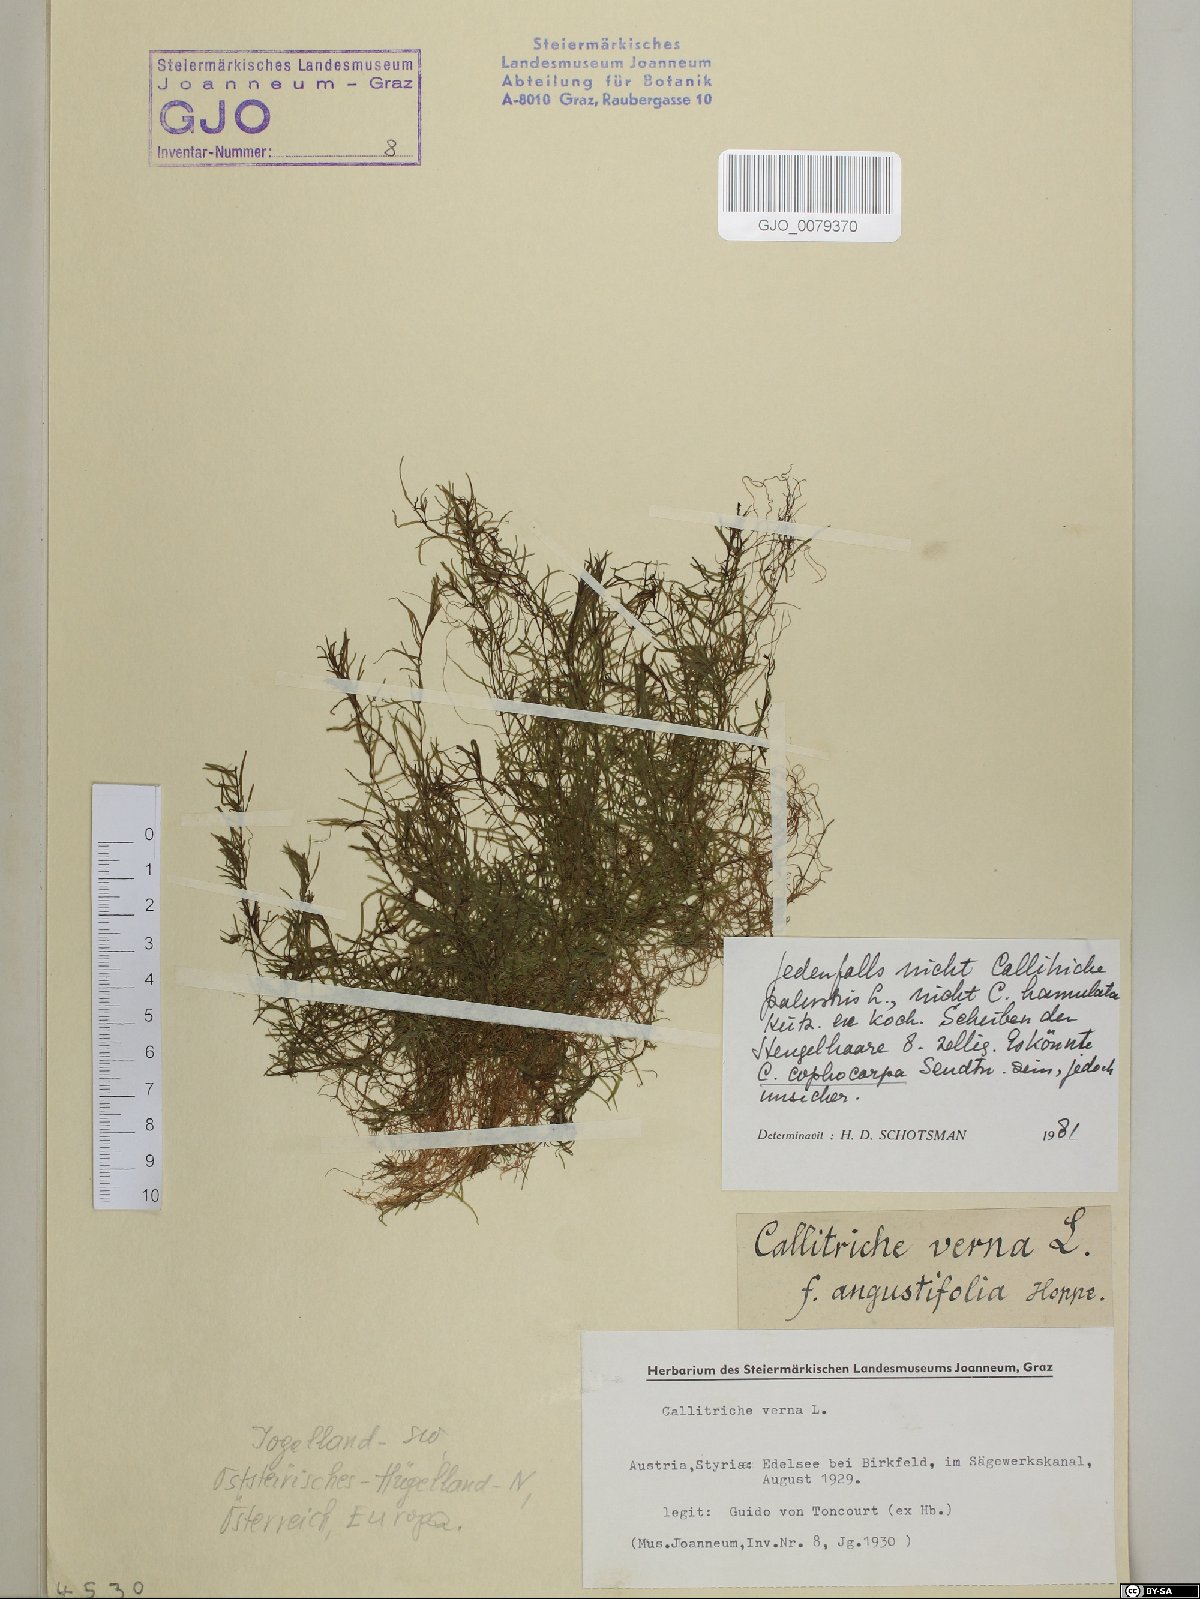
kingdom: Plantae
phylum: Tracheophyta
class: Magnoliopsida
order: Lamiales
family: Plantaginaceae
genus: Callitriche
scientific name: Callitriche cophocarpa
